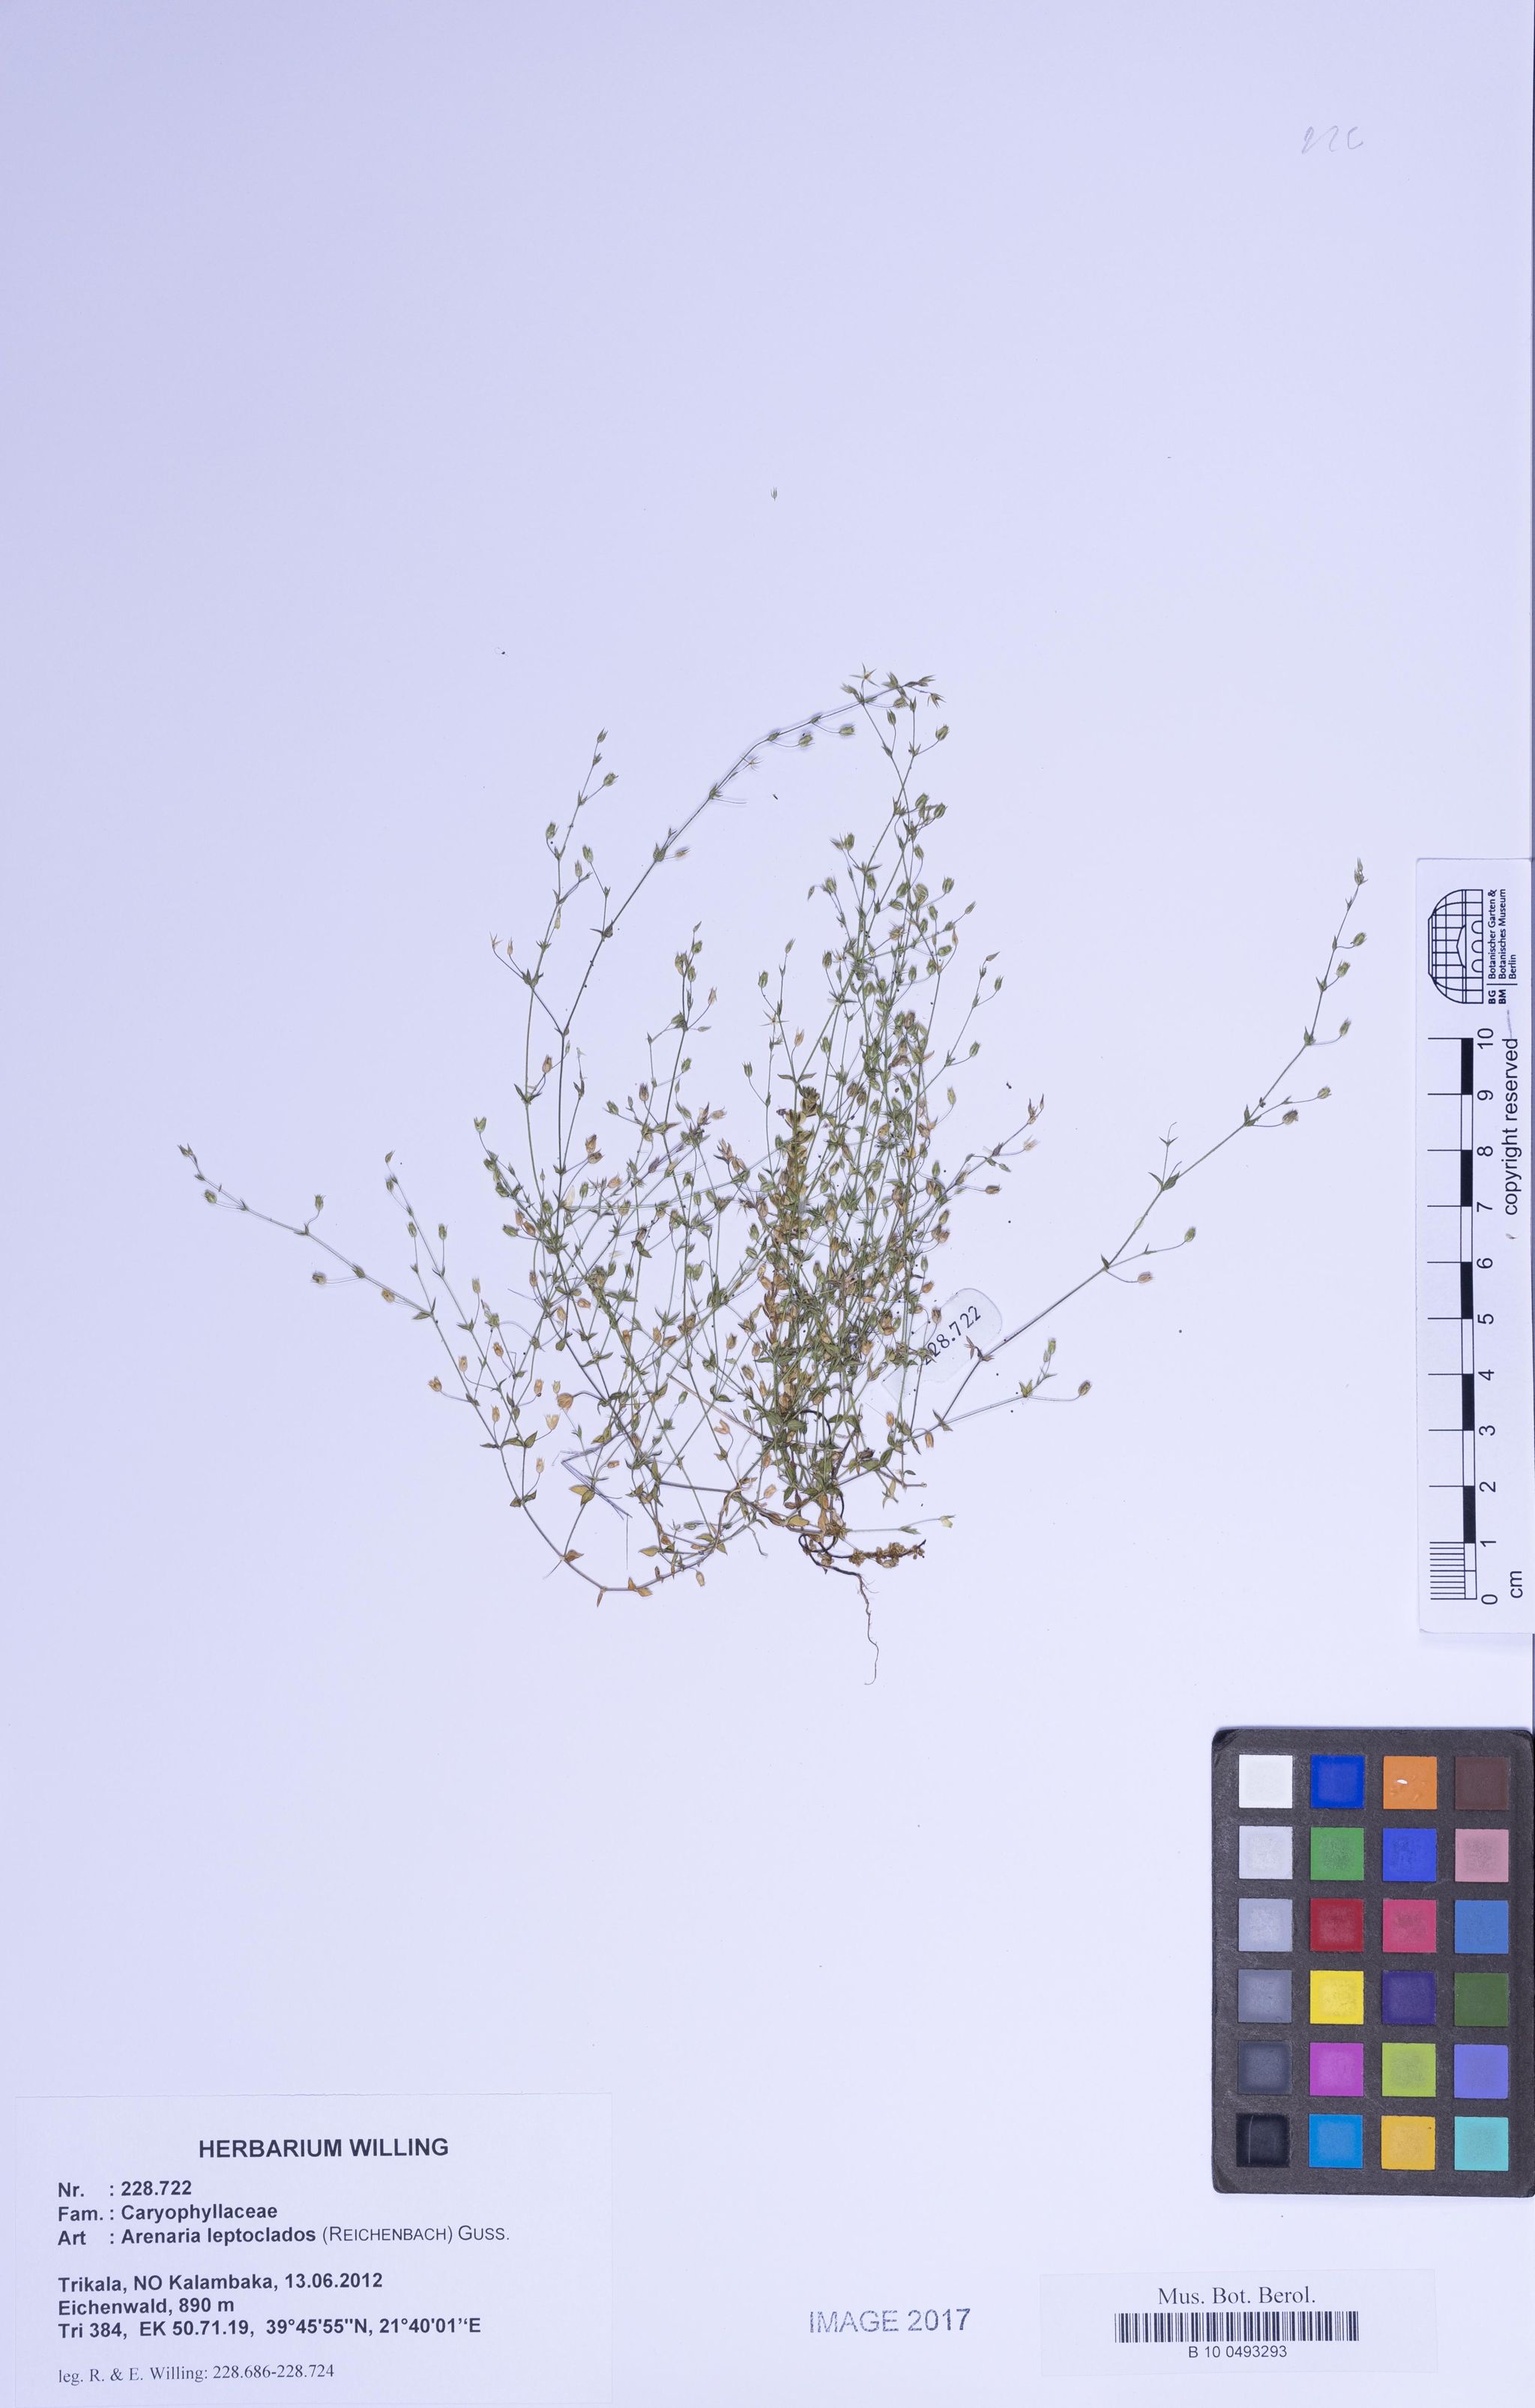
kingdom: Plantae
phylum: Tracheophyta
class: Magnoliopsida
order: Caryophyllales
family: Caryophyllaceae
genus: Arenaria
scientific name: Arenaria leptoclados
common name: Thyme-leaved sandwort
